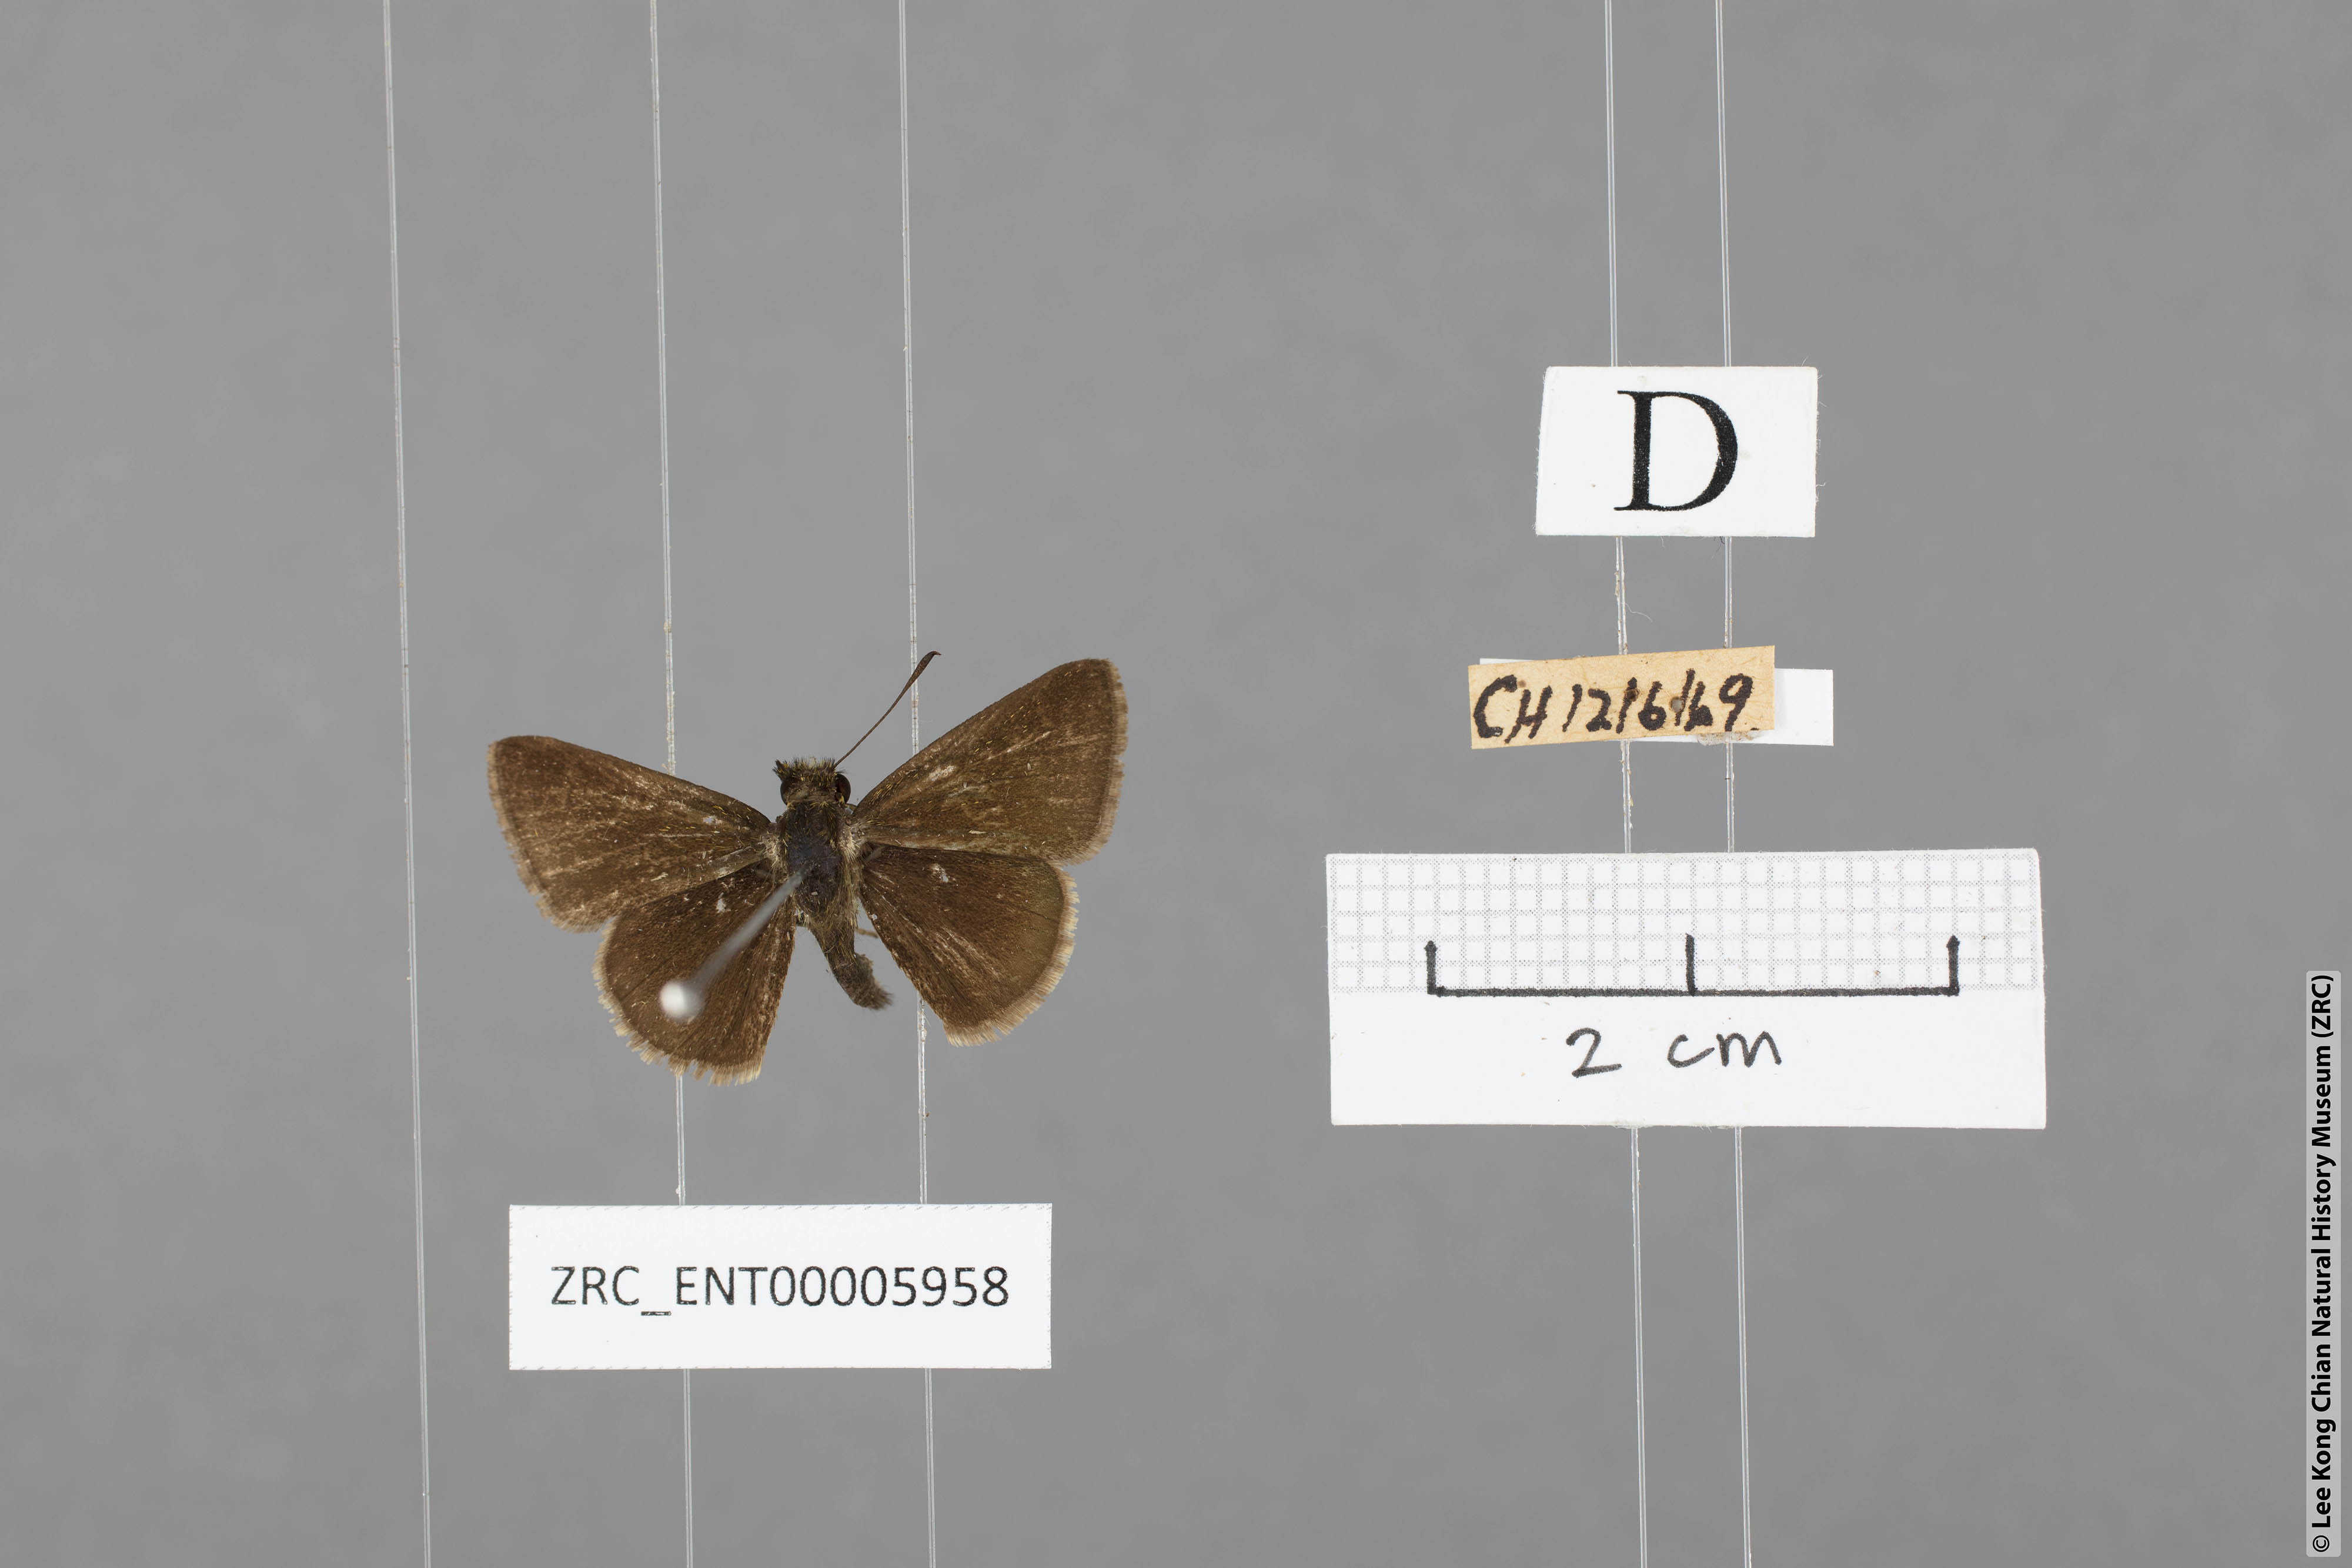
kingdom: Animalia
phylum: Arthropoda
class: Insecta
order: Lepidoptera
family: Hesperiidae
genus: Aeromachus
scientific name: Aeromachus jhora
